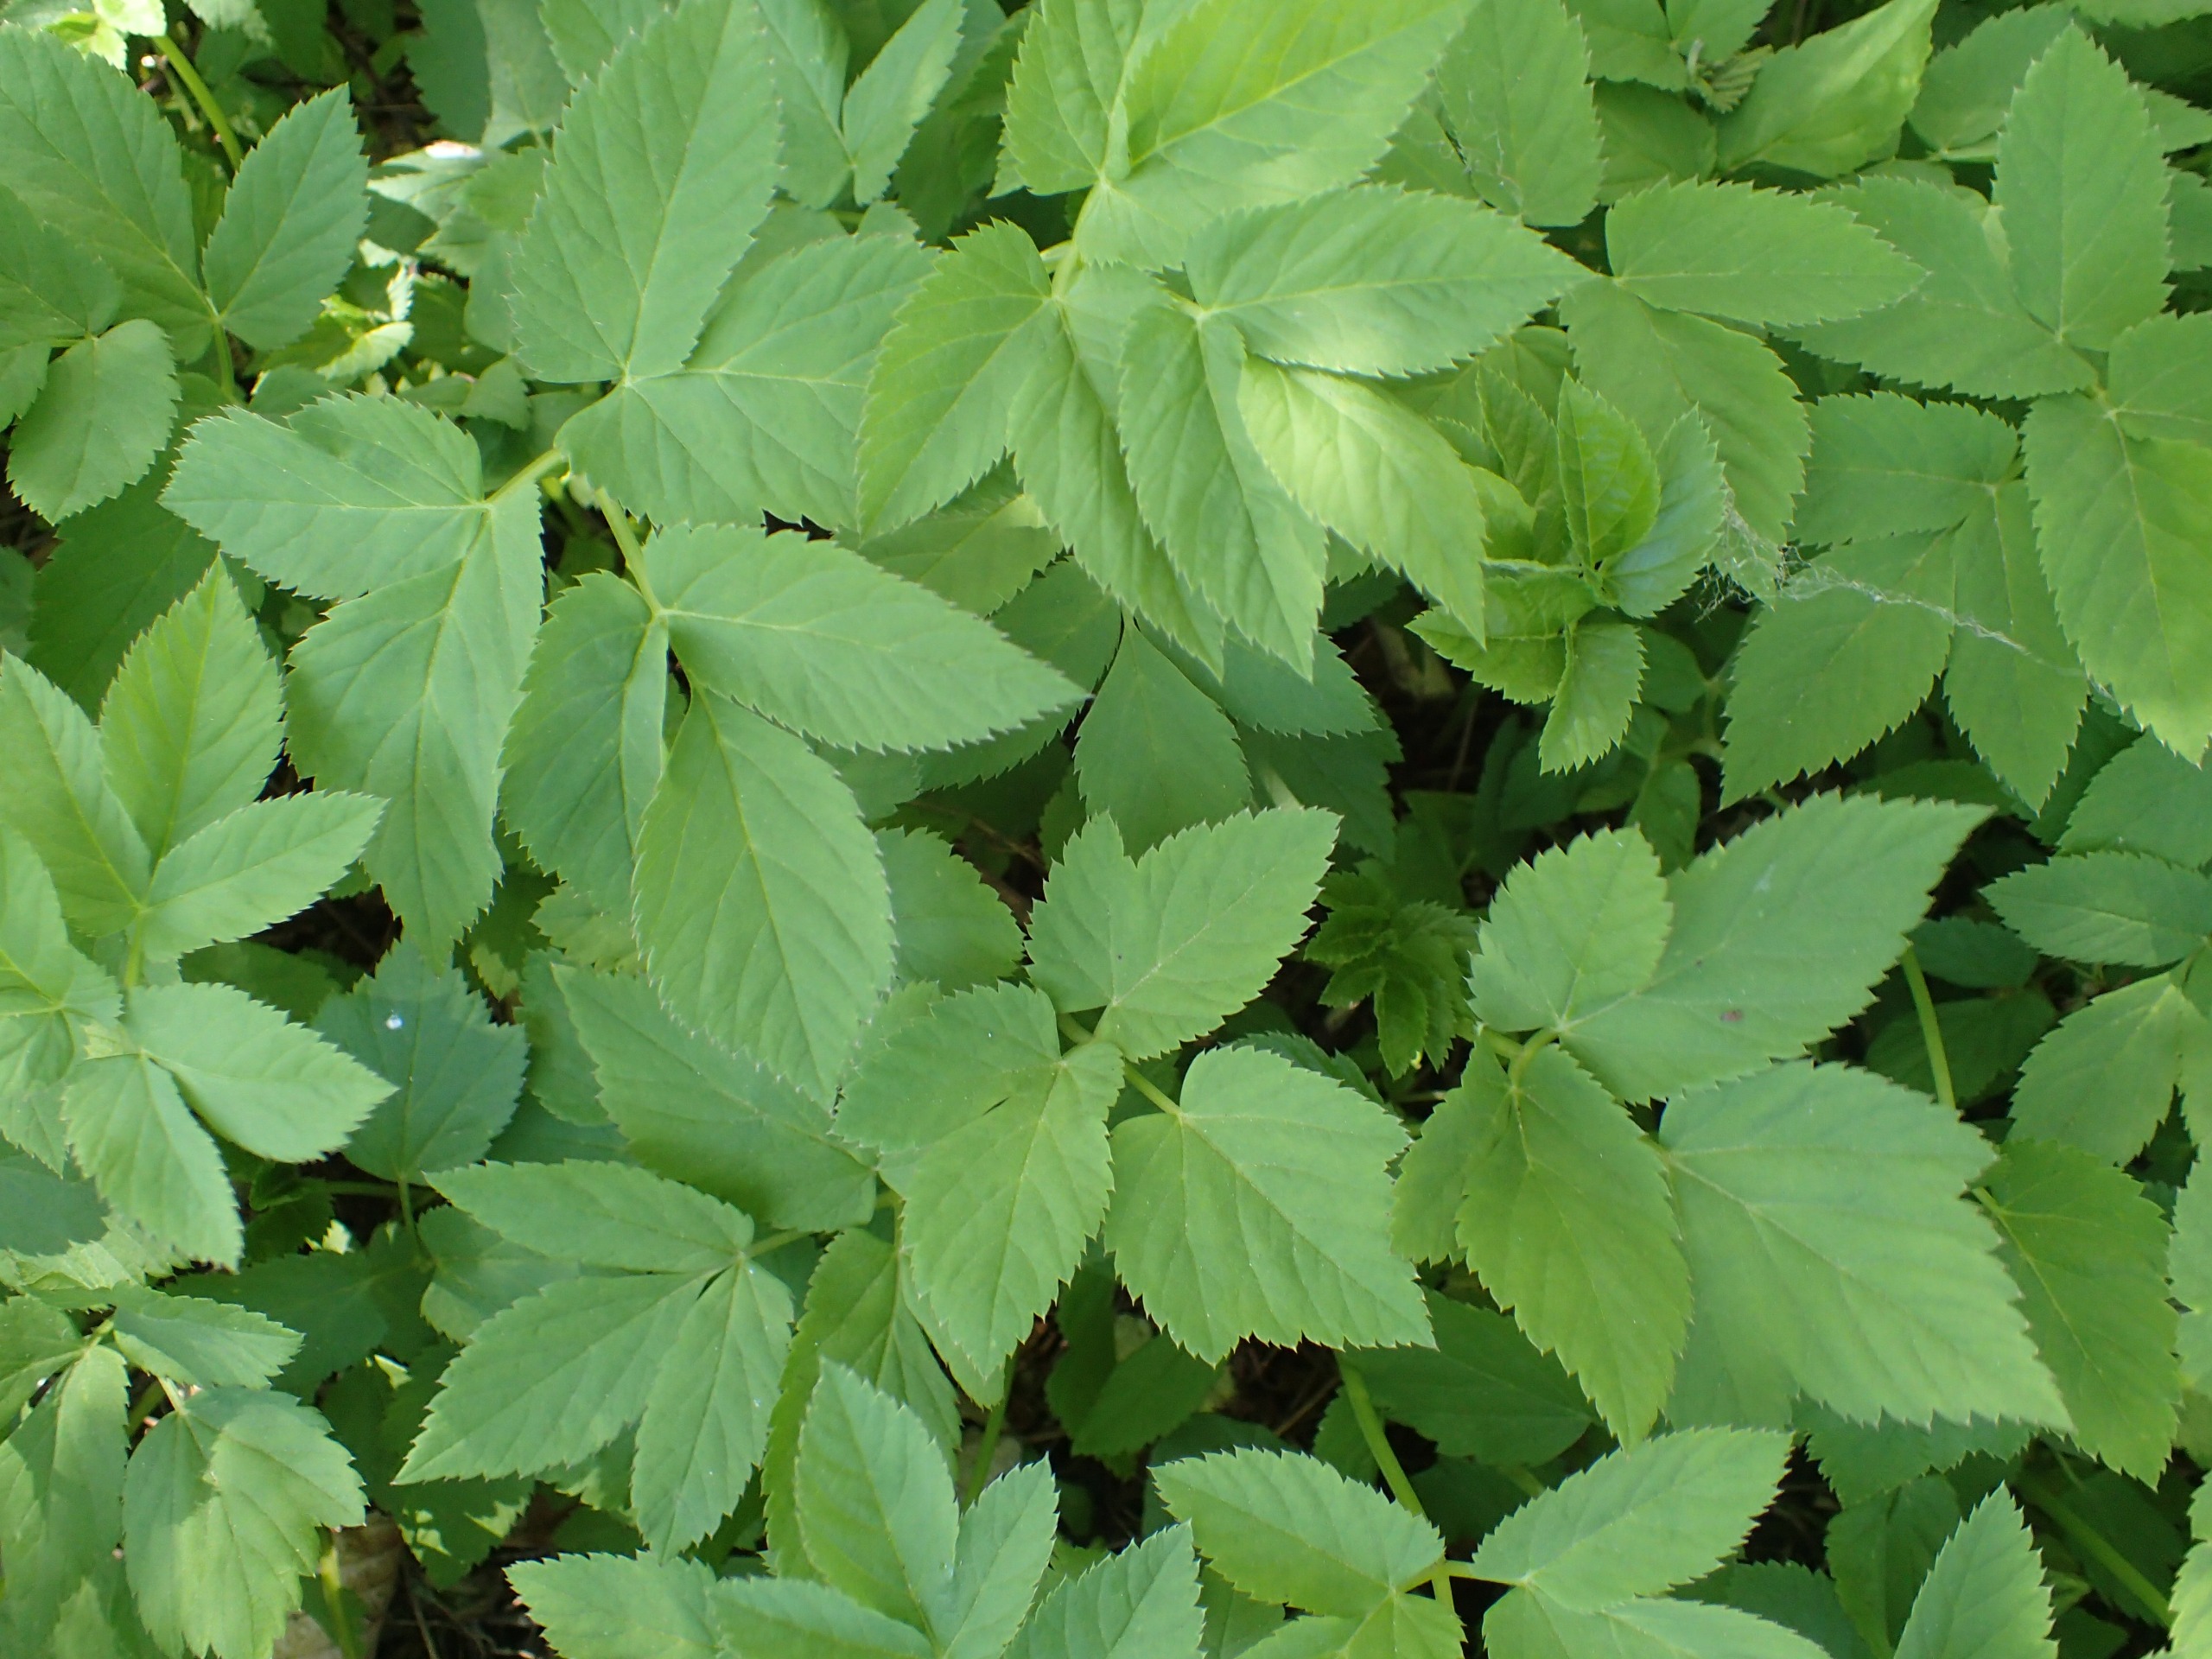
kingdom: Plantae
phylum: Tracheophyta
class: Magnoliopsida
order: Apiales
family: Apiaceae
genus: Aegopodium
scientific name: Aegopodium podagraria
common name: Skvalderkål
